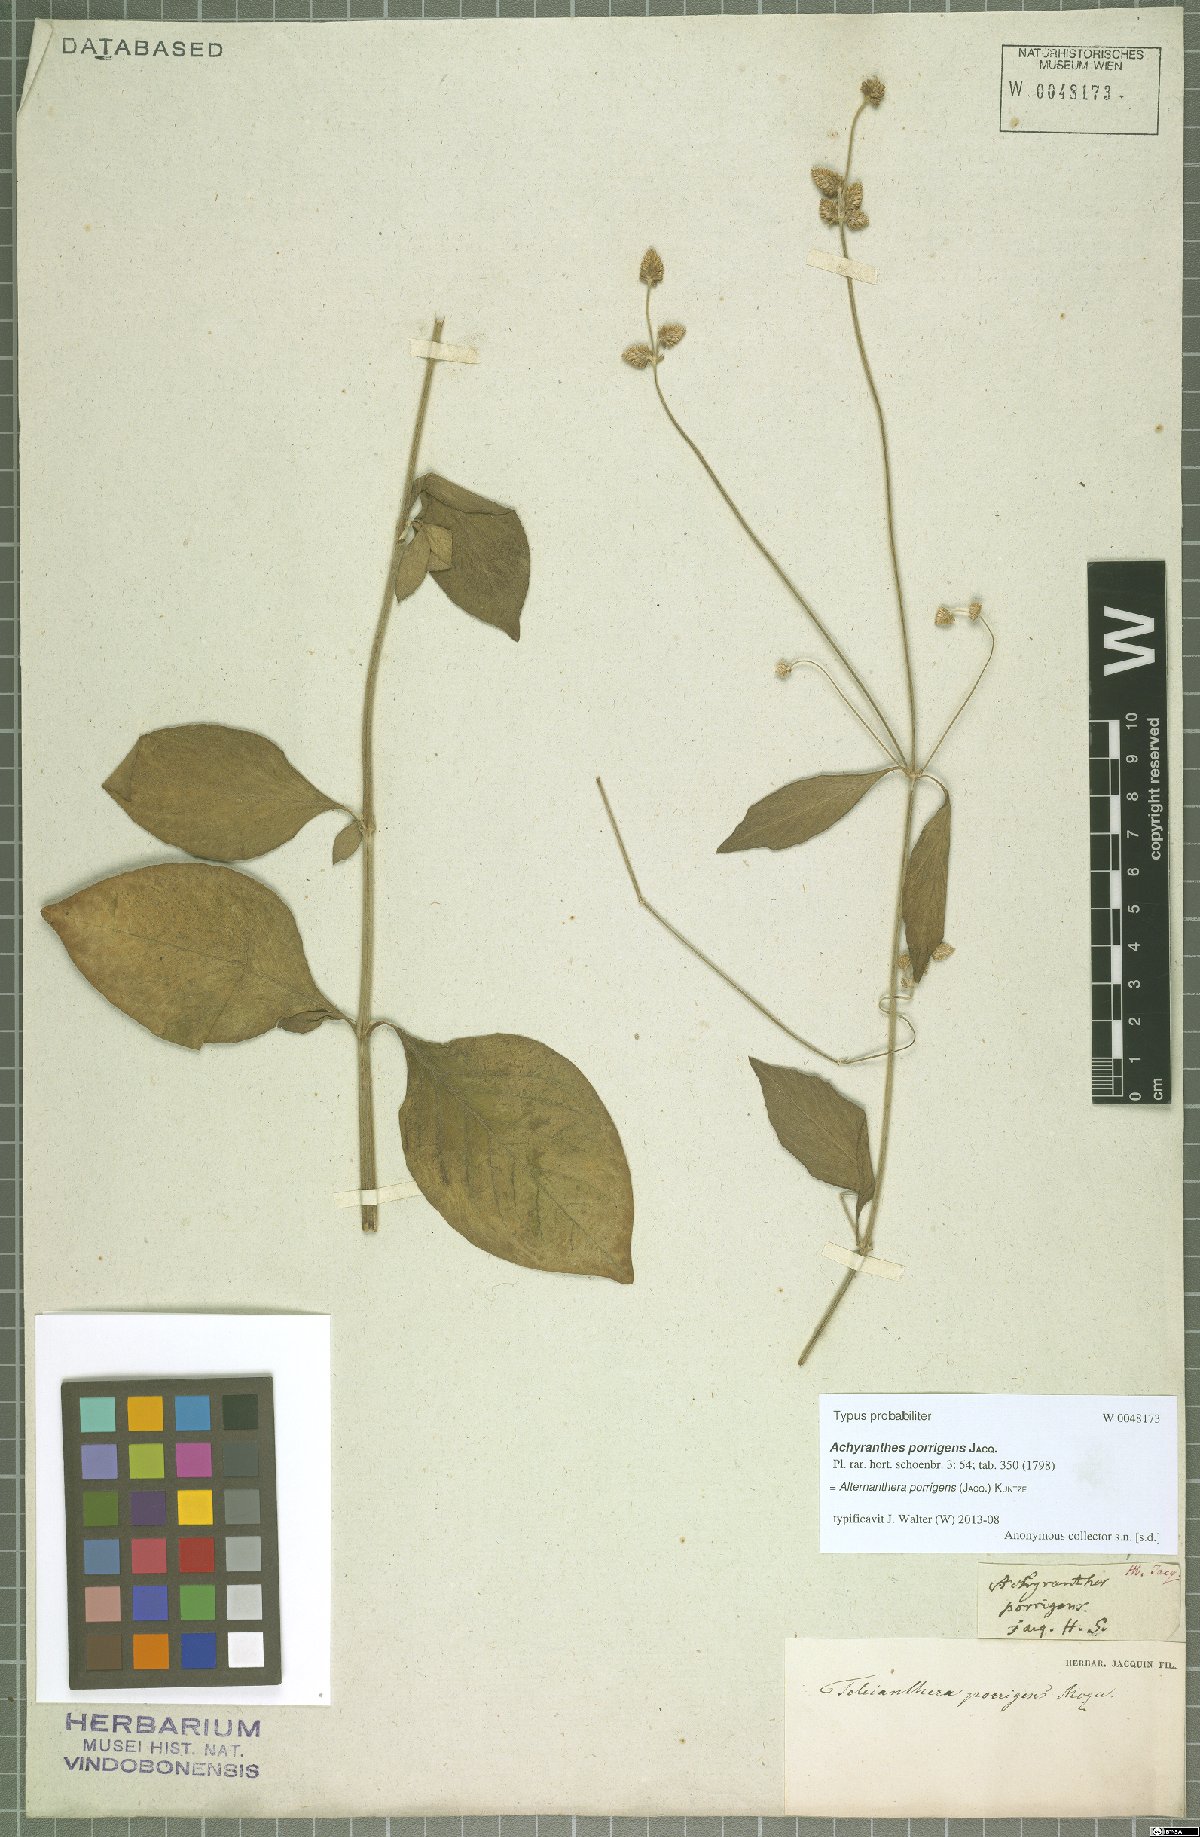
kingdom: Plantae
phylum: Tracheophyta
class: Magnoliopsida
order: Caryophyllales
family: Amaranthaceae
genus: Alternanthera
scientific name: Alternanthera porrigens
